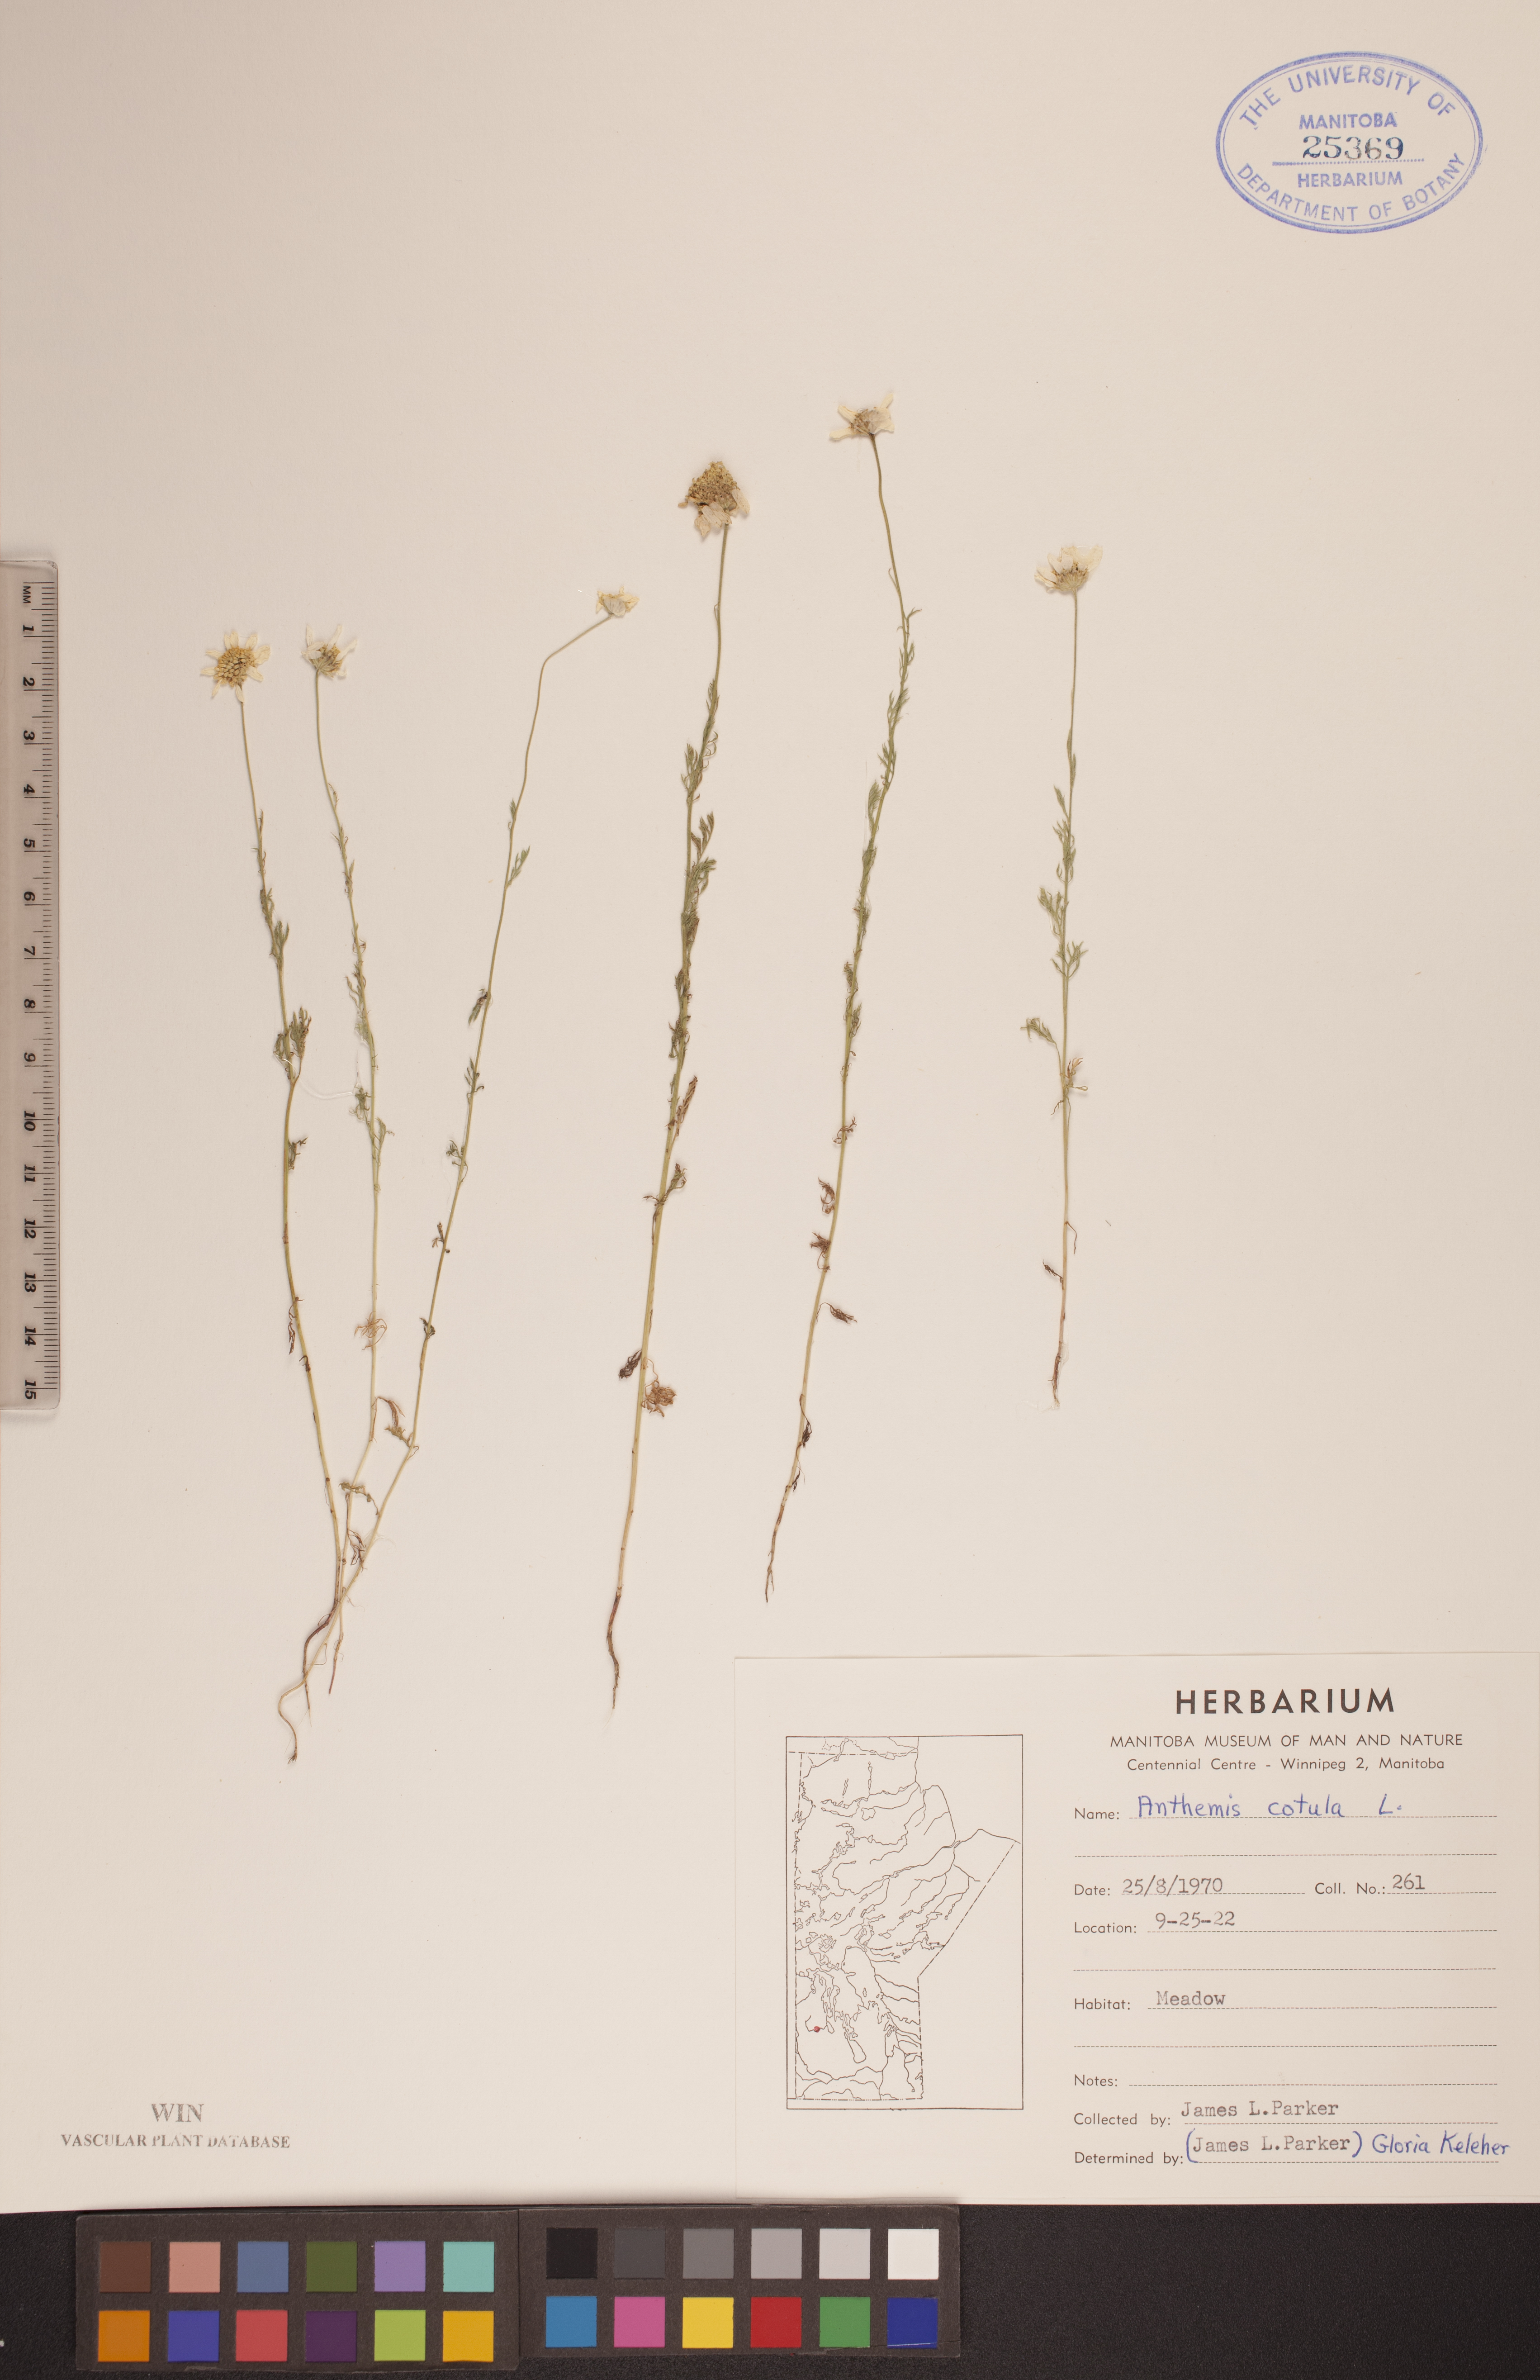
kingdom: Plantae
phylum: Tracheophyta
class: Magnoliopsida
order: Asterales
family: Asteraceae
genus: Anthemis
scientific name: Anthemis cotula
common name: Stinking chamomile
